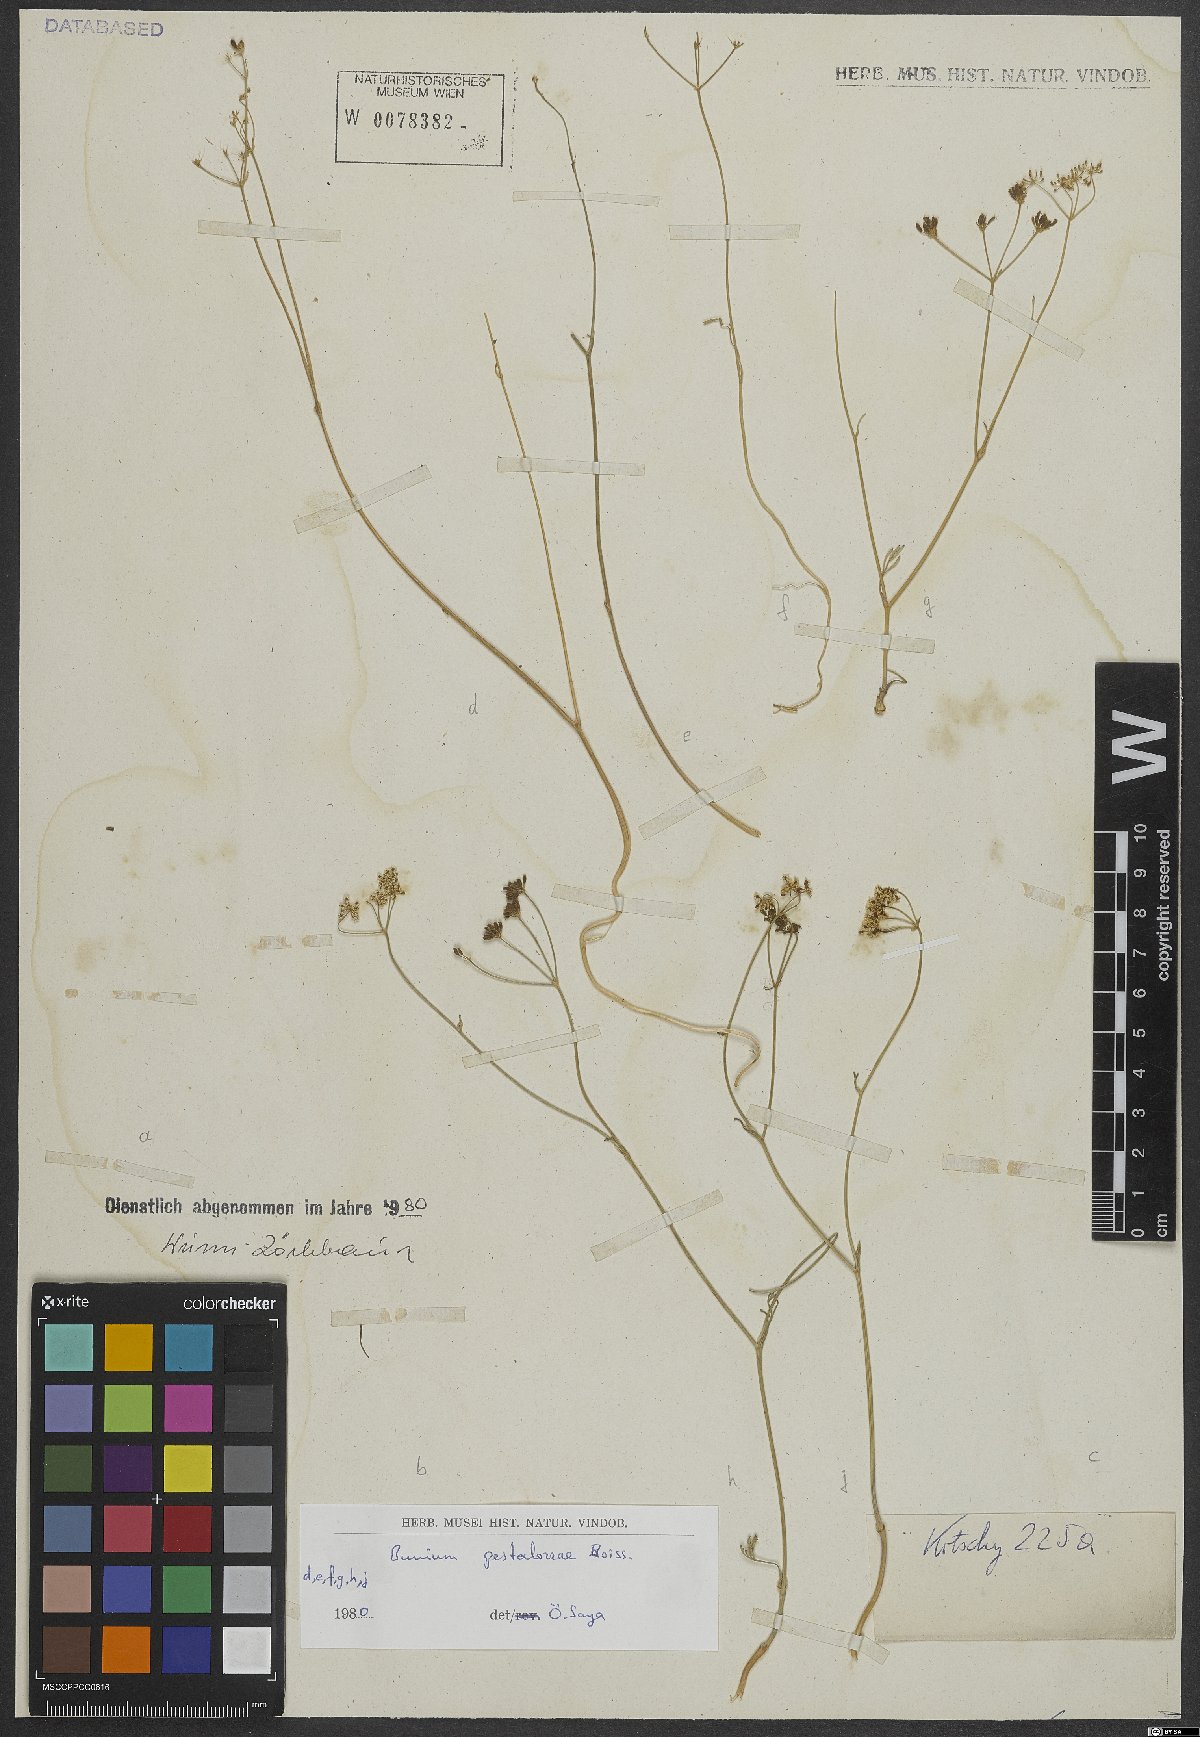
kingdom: Plantae
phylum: Tracheophyta
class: Magnoliopsida
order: Apiales
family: Apiaceae
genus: Bunium
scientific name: Bunium pestalozzae
